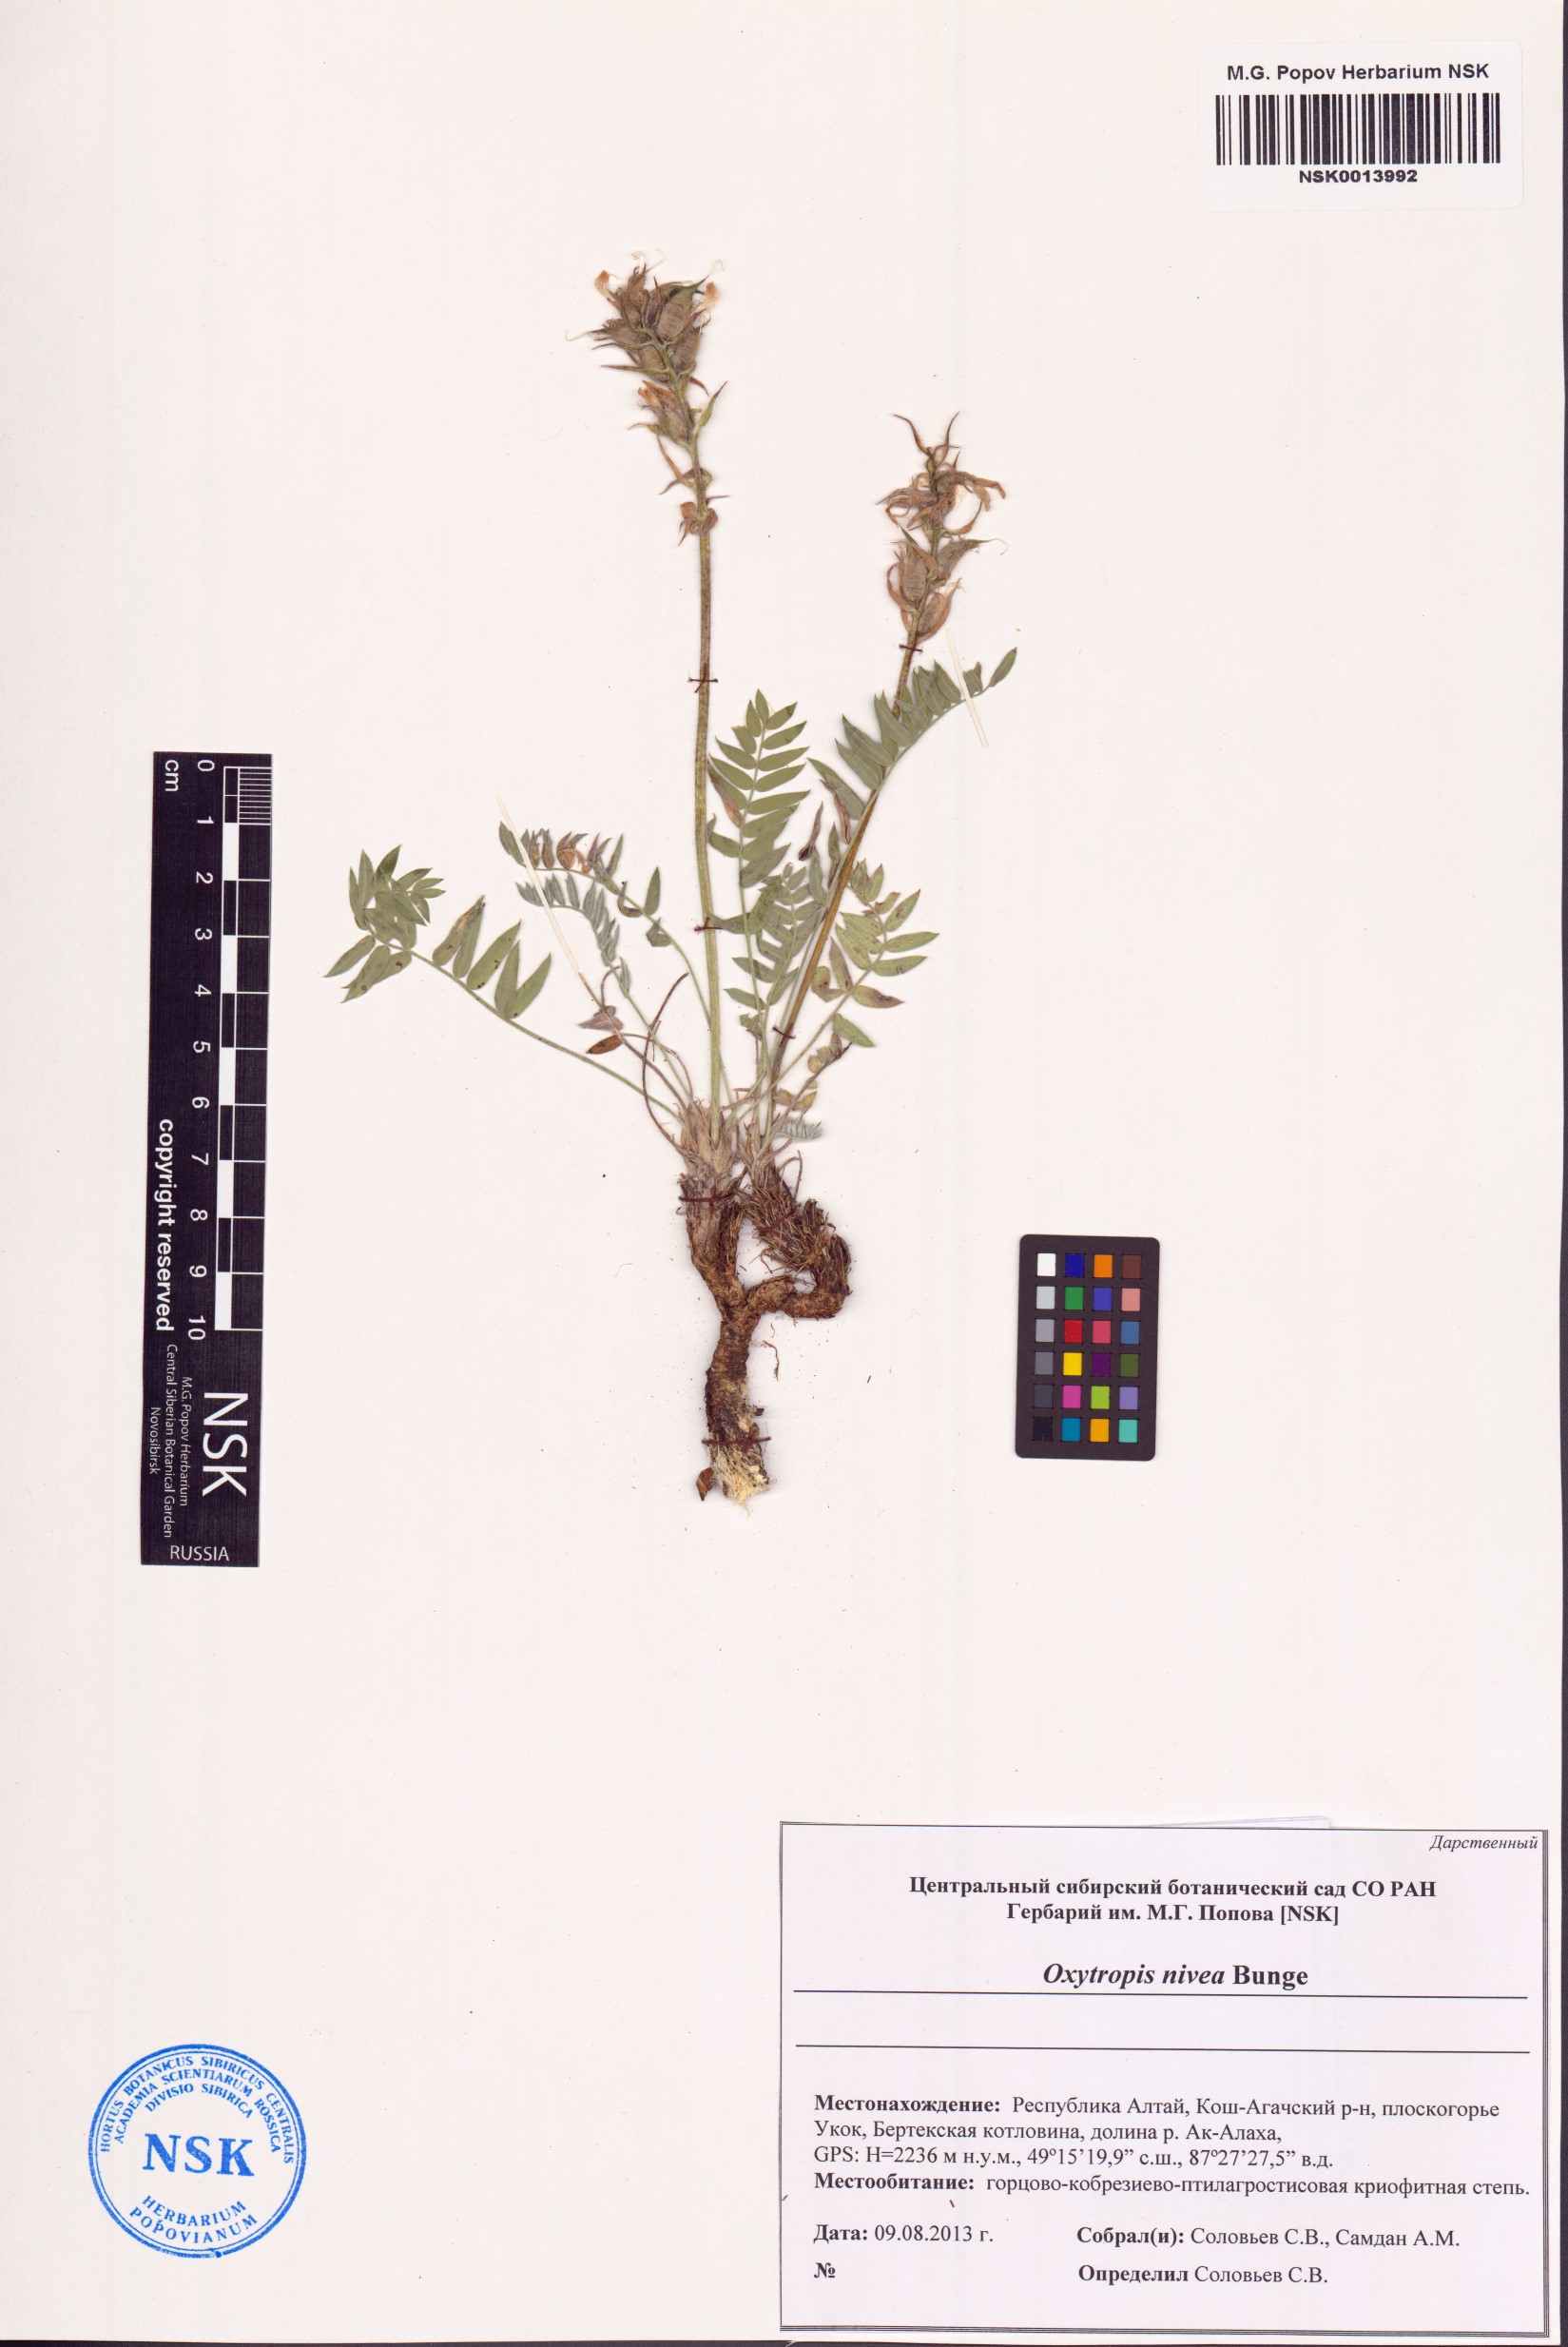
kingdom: Plantae
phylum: Tracheophyta
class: Magnoliopsida
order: Fabales
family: Fabaceae
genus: Oxytropis
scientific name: Oxytropis nivea
